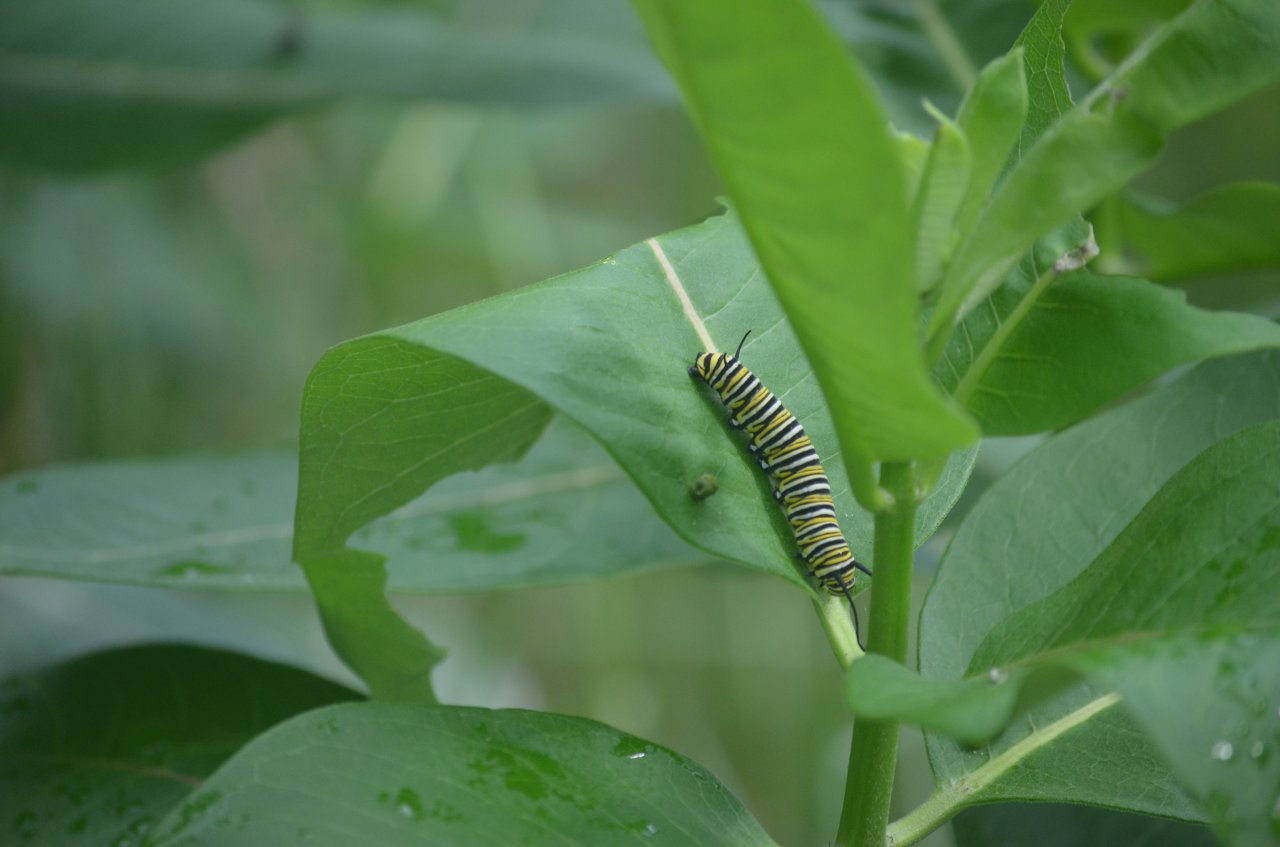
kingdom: Animalia
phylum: Arthropoda
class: Insecta
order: Lepidoptera
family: Nymphalidae
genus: Danaus
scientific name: Danaus plexippus
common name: Monarch
